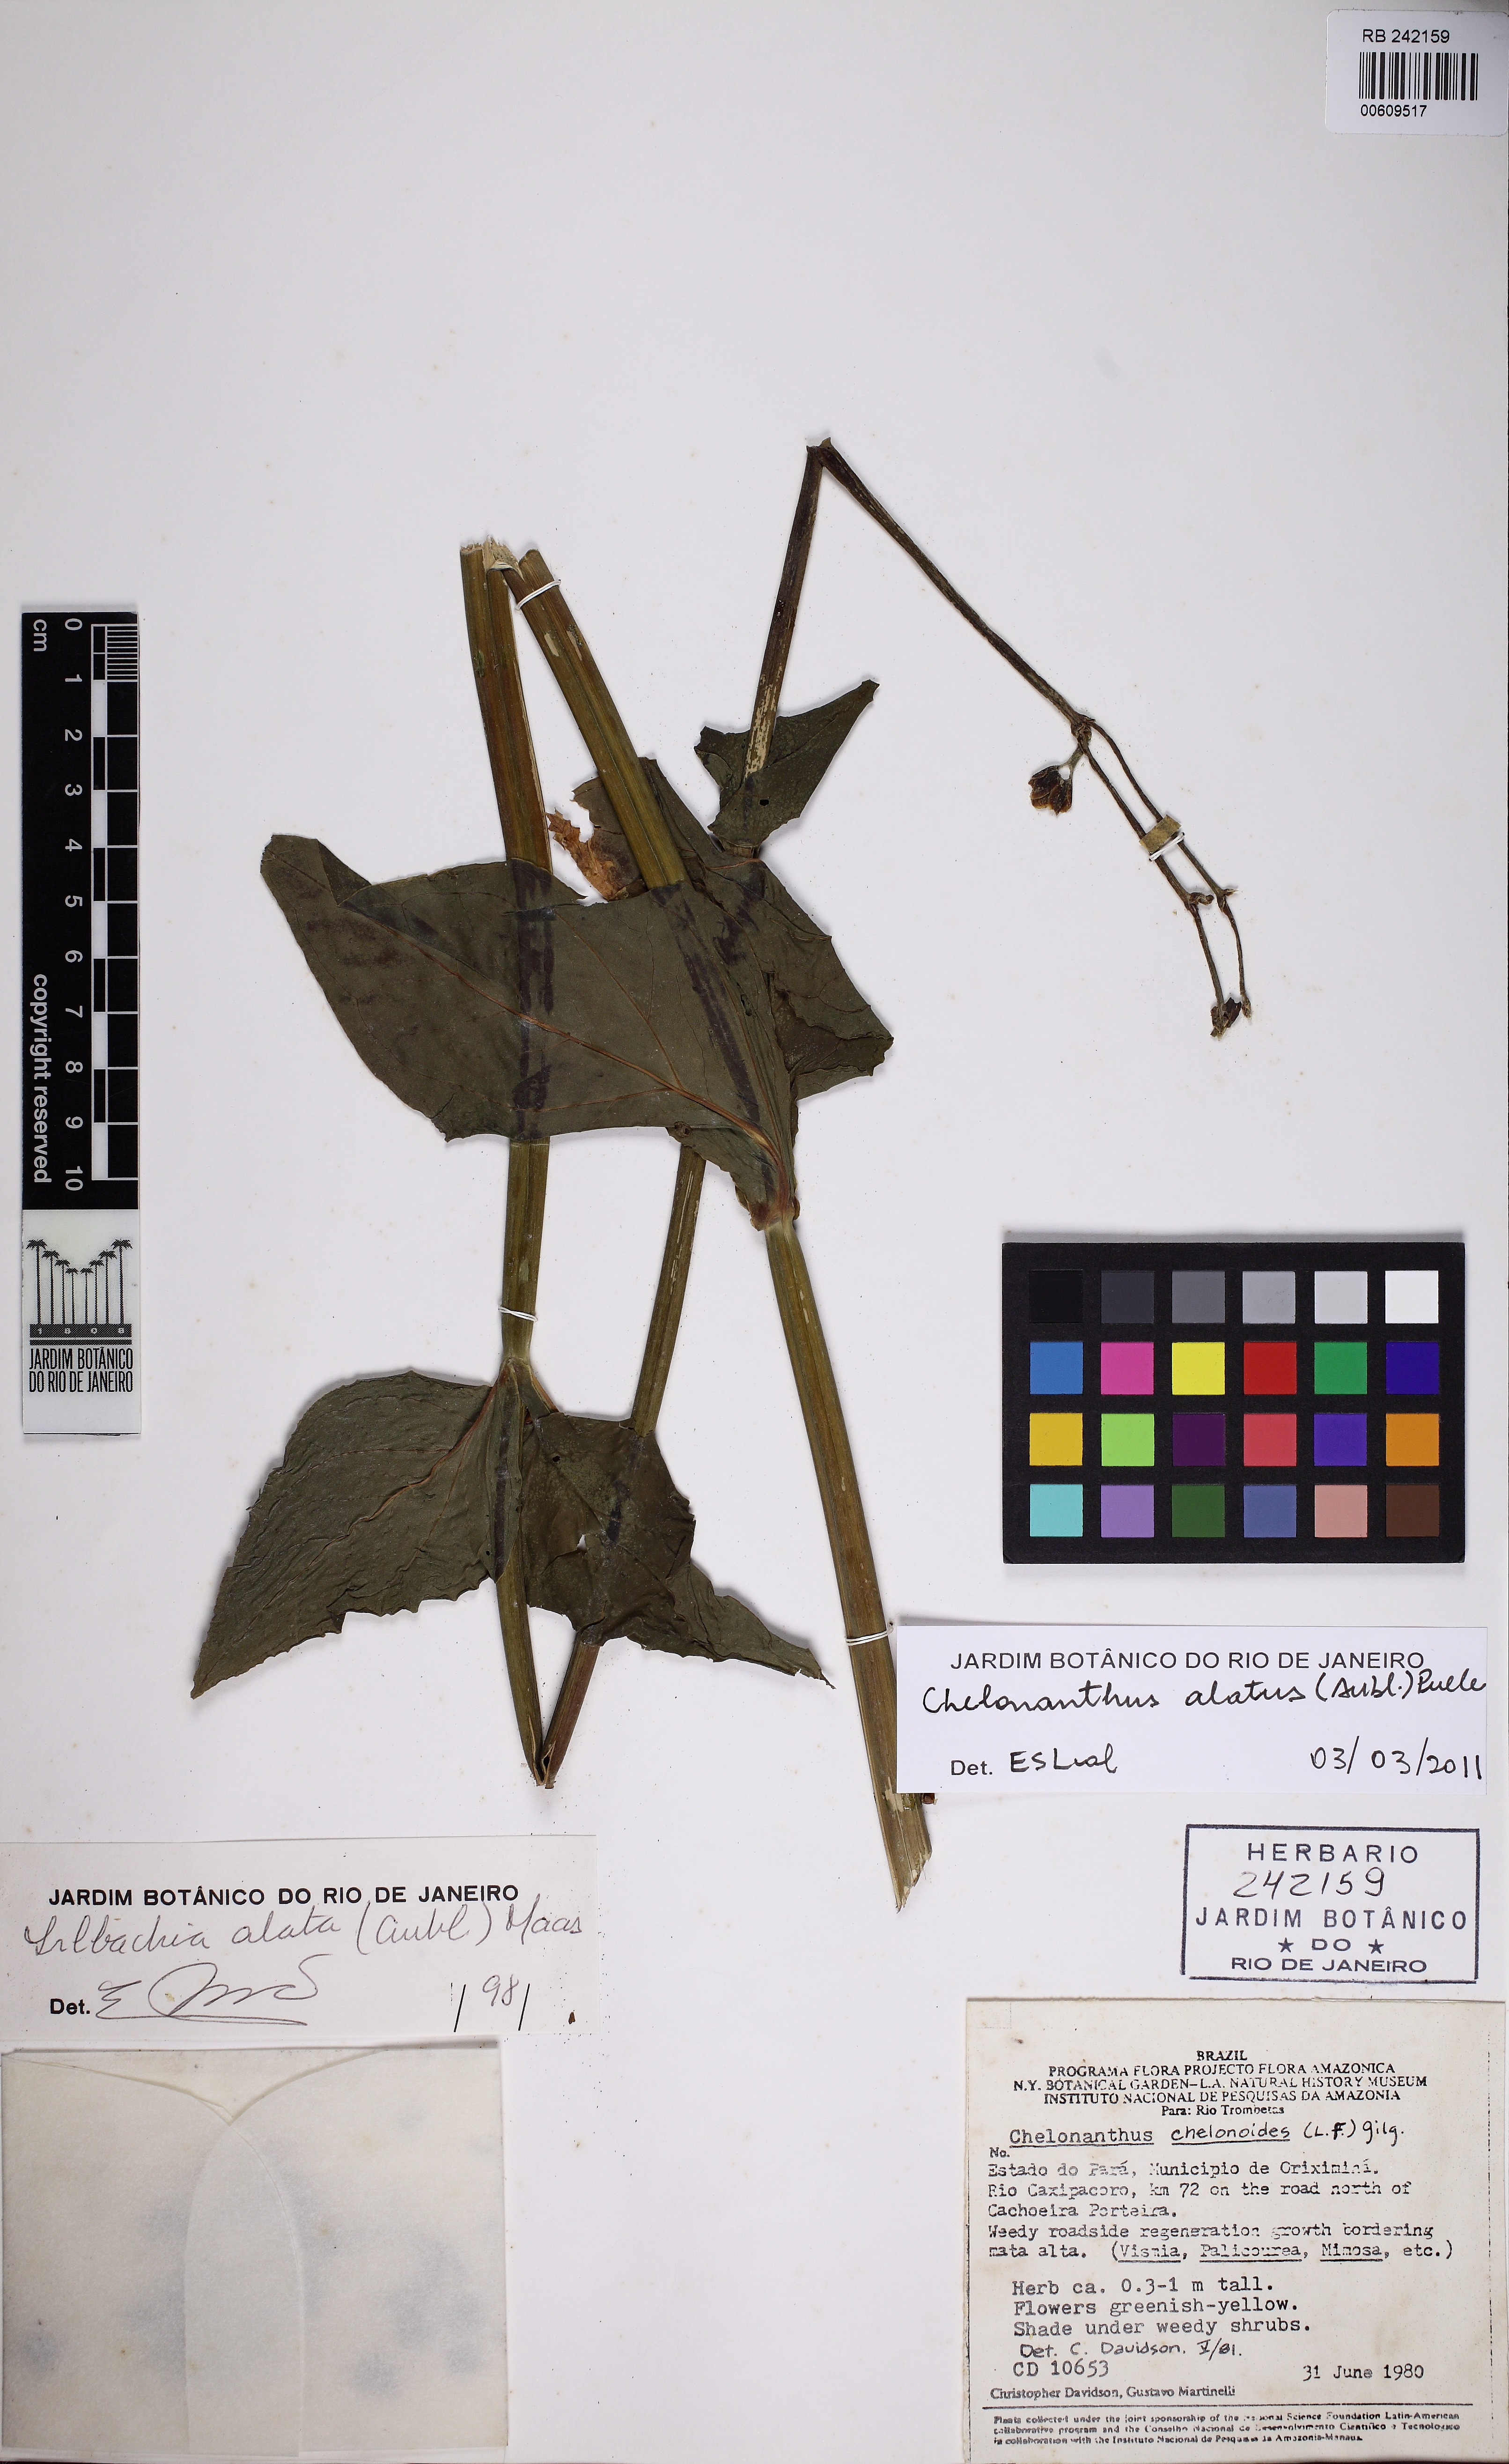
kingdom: Plantae
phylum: Tracheophyta
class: Magnoliopsida
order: Gentianales
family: Gentianaceae
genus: Chelonanthus
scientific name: Chelonanthus alatus
